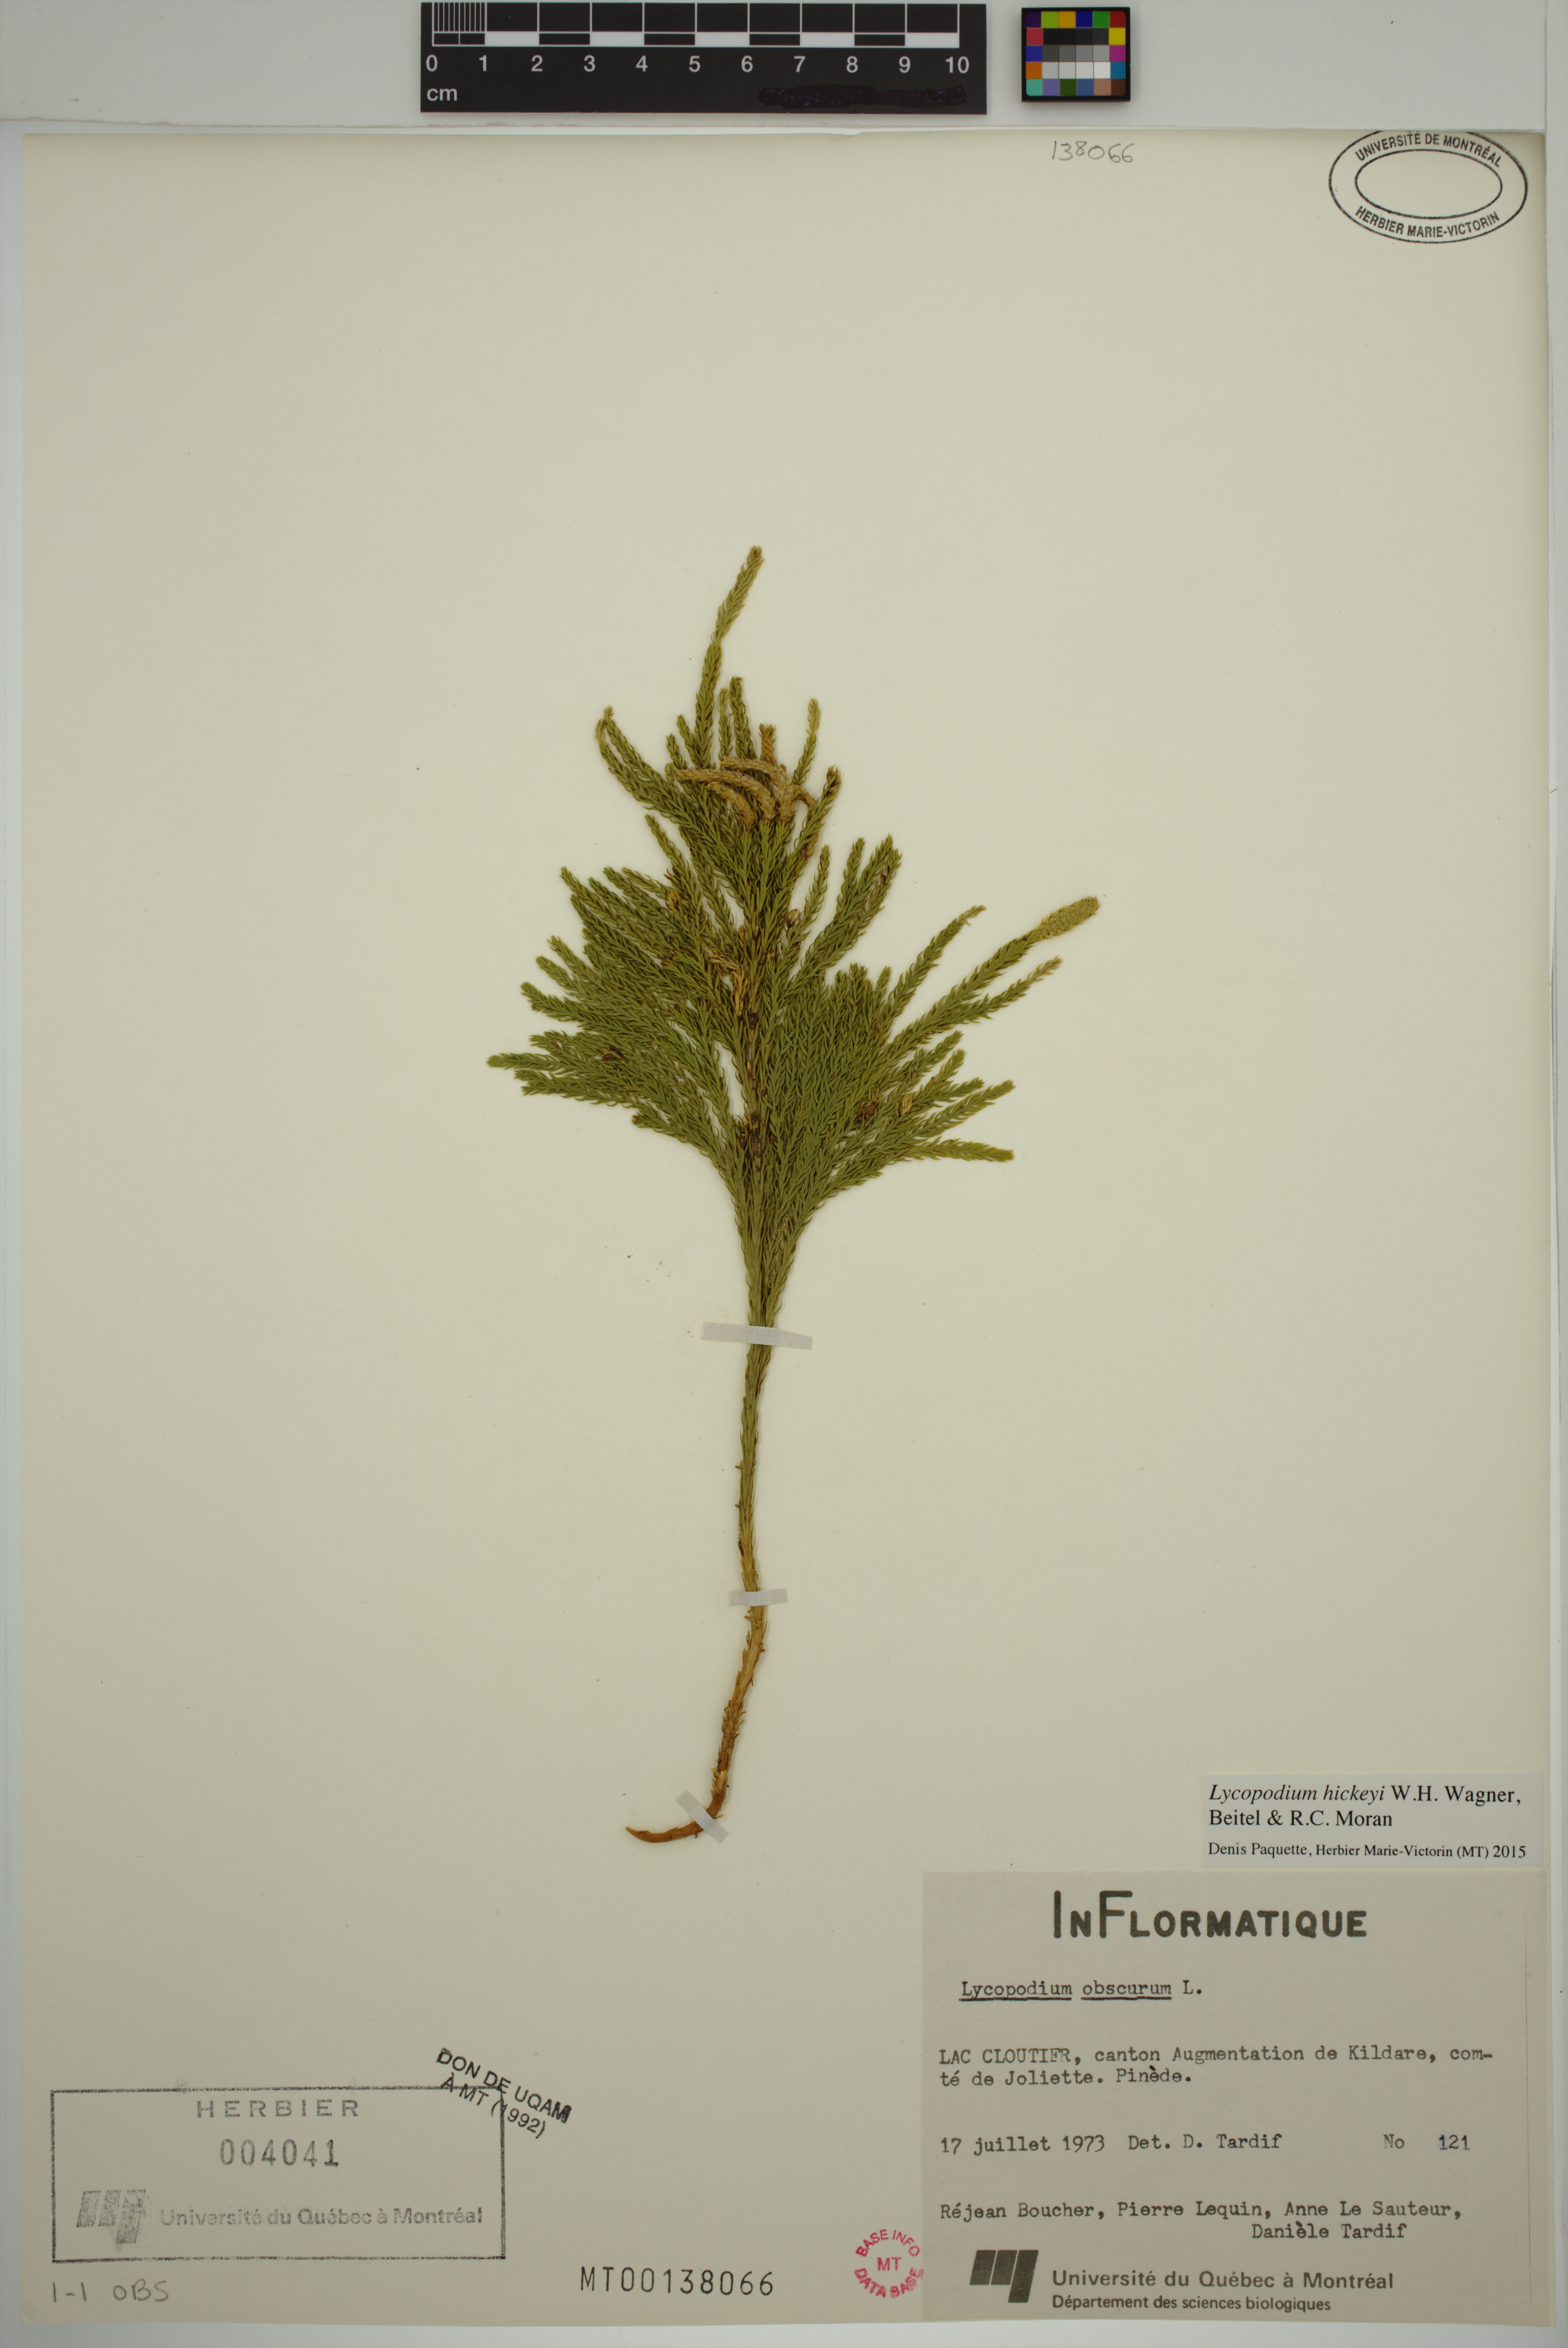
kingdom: Plantae
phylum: Tracheophyta
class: Lycopodiopsida
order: Lycopodiales
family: Lycopodiaceae
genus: Dendrolycopodium
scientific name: Dendrolycopodium hickeyi
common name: Hickey's clubmoss
